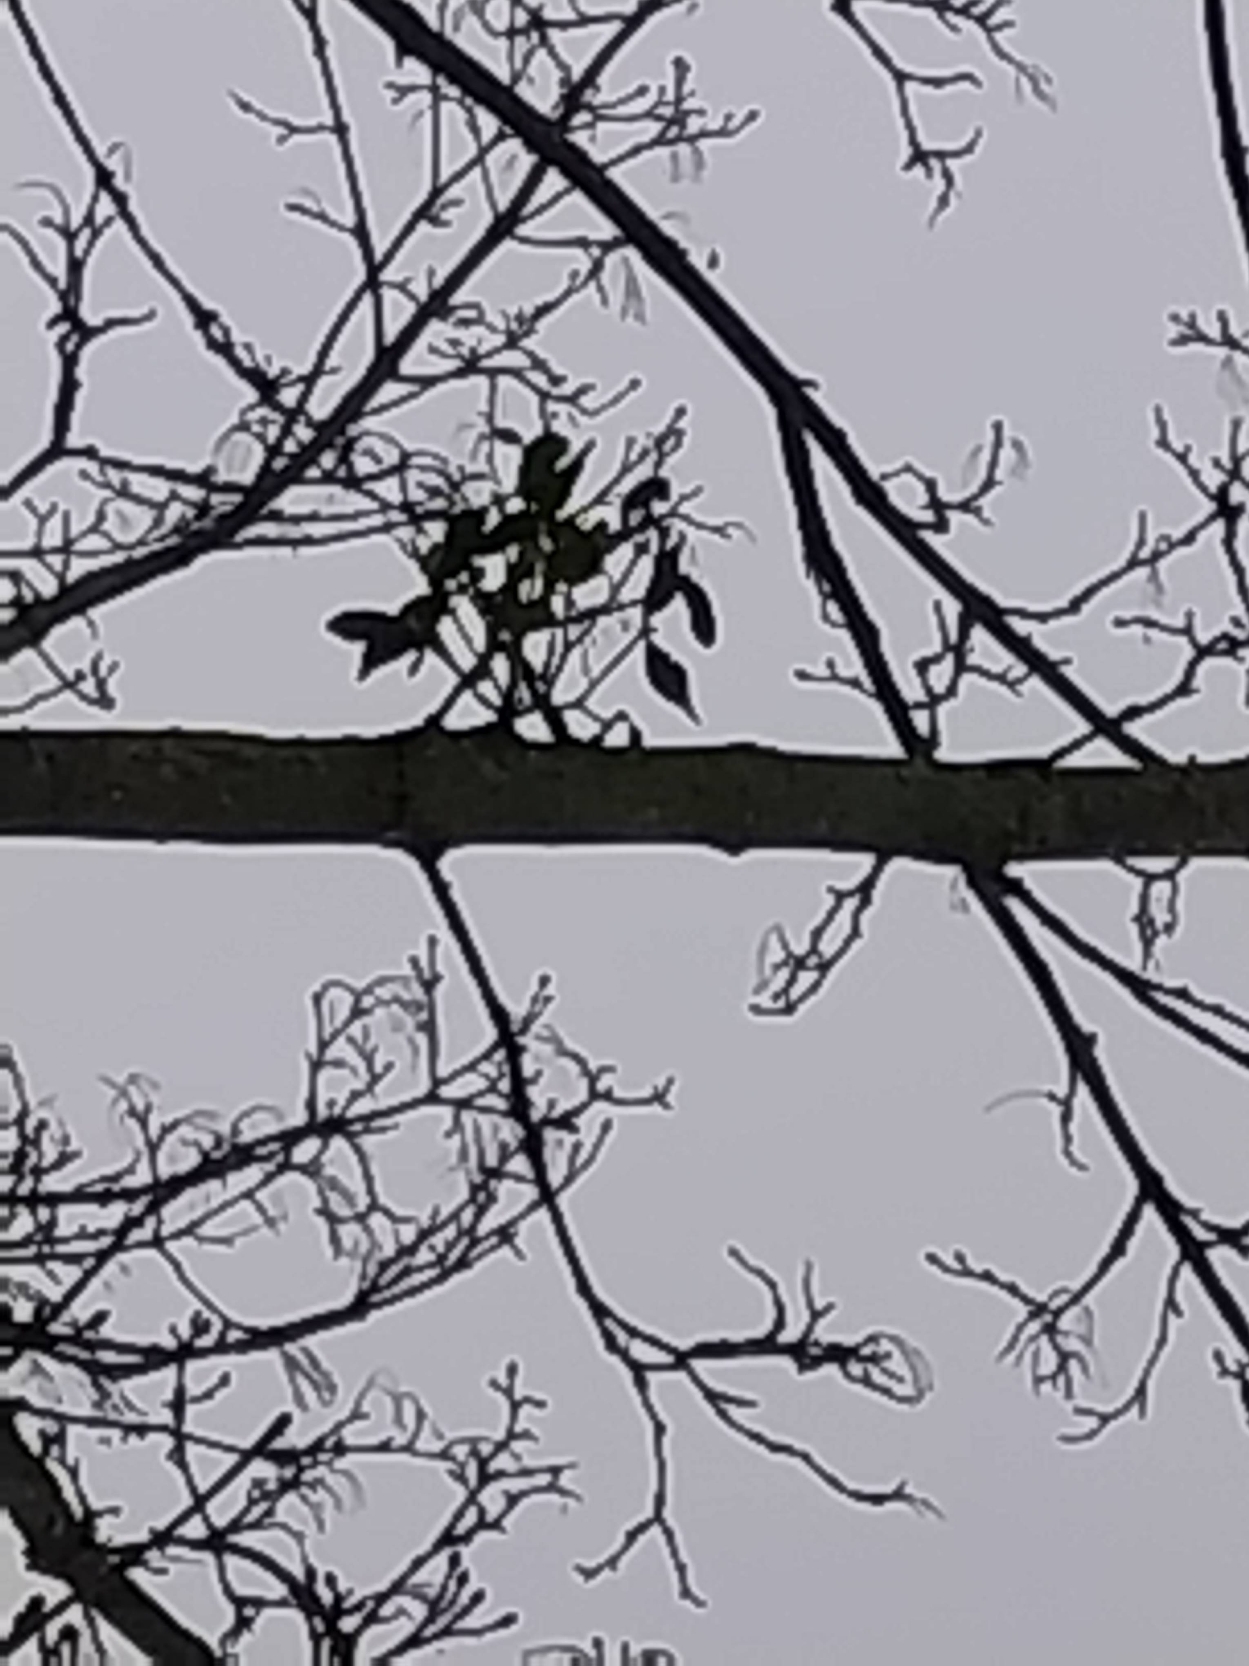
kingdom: Plantae
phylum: Tracheophyta
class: Magnoliopsida
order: Santalales
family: Viscaceae
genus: Viscum
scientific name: Viscum album
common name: Mistelten
